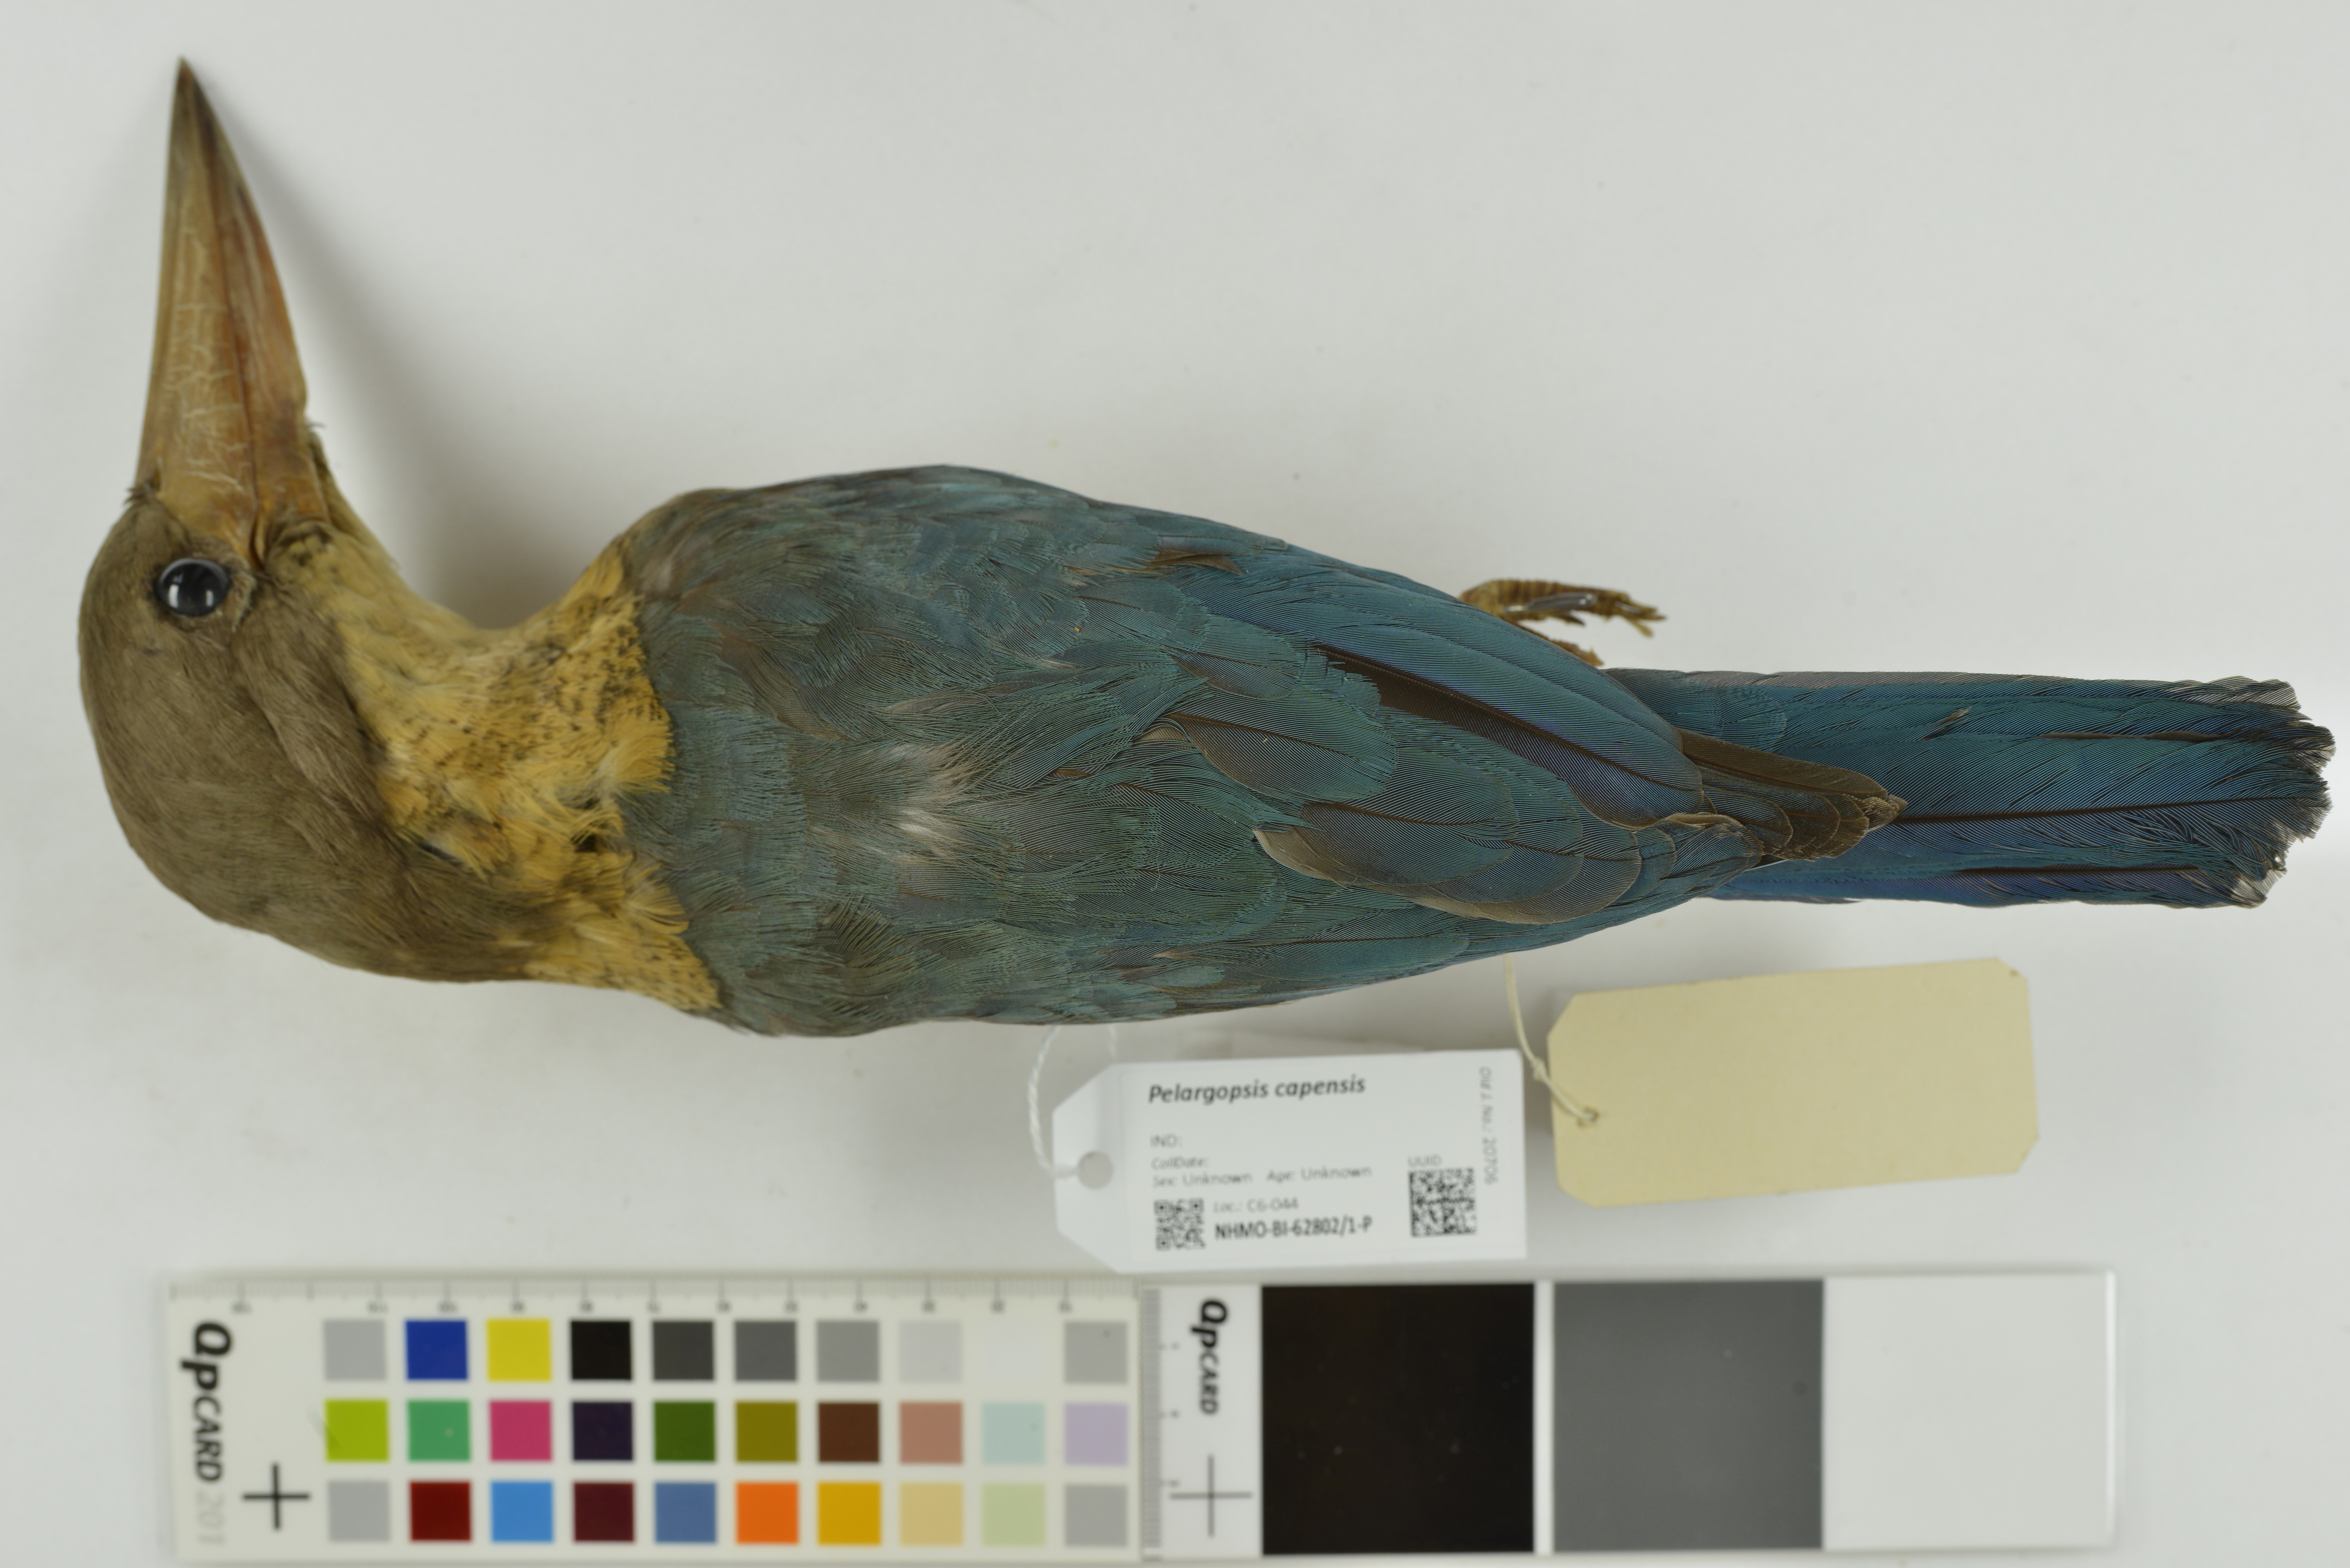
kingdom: Animalia
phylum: Chordata
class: Aves
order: Coraciiformes
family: Alcedinidae
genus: Pelargopsis
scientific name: Pelargopsis capensis
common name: Stork-billed kingfisher
